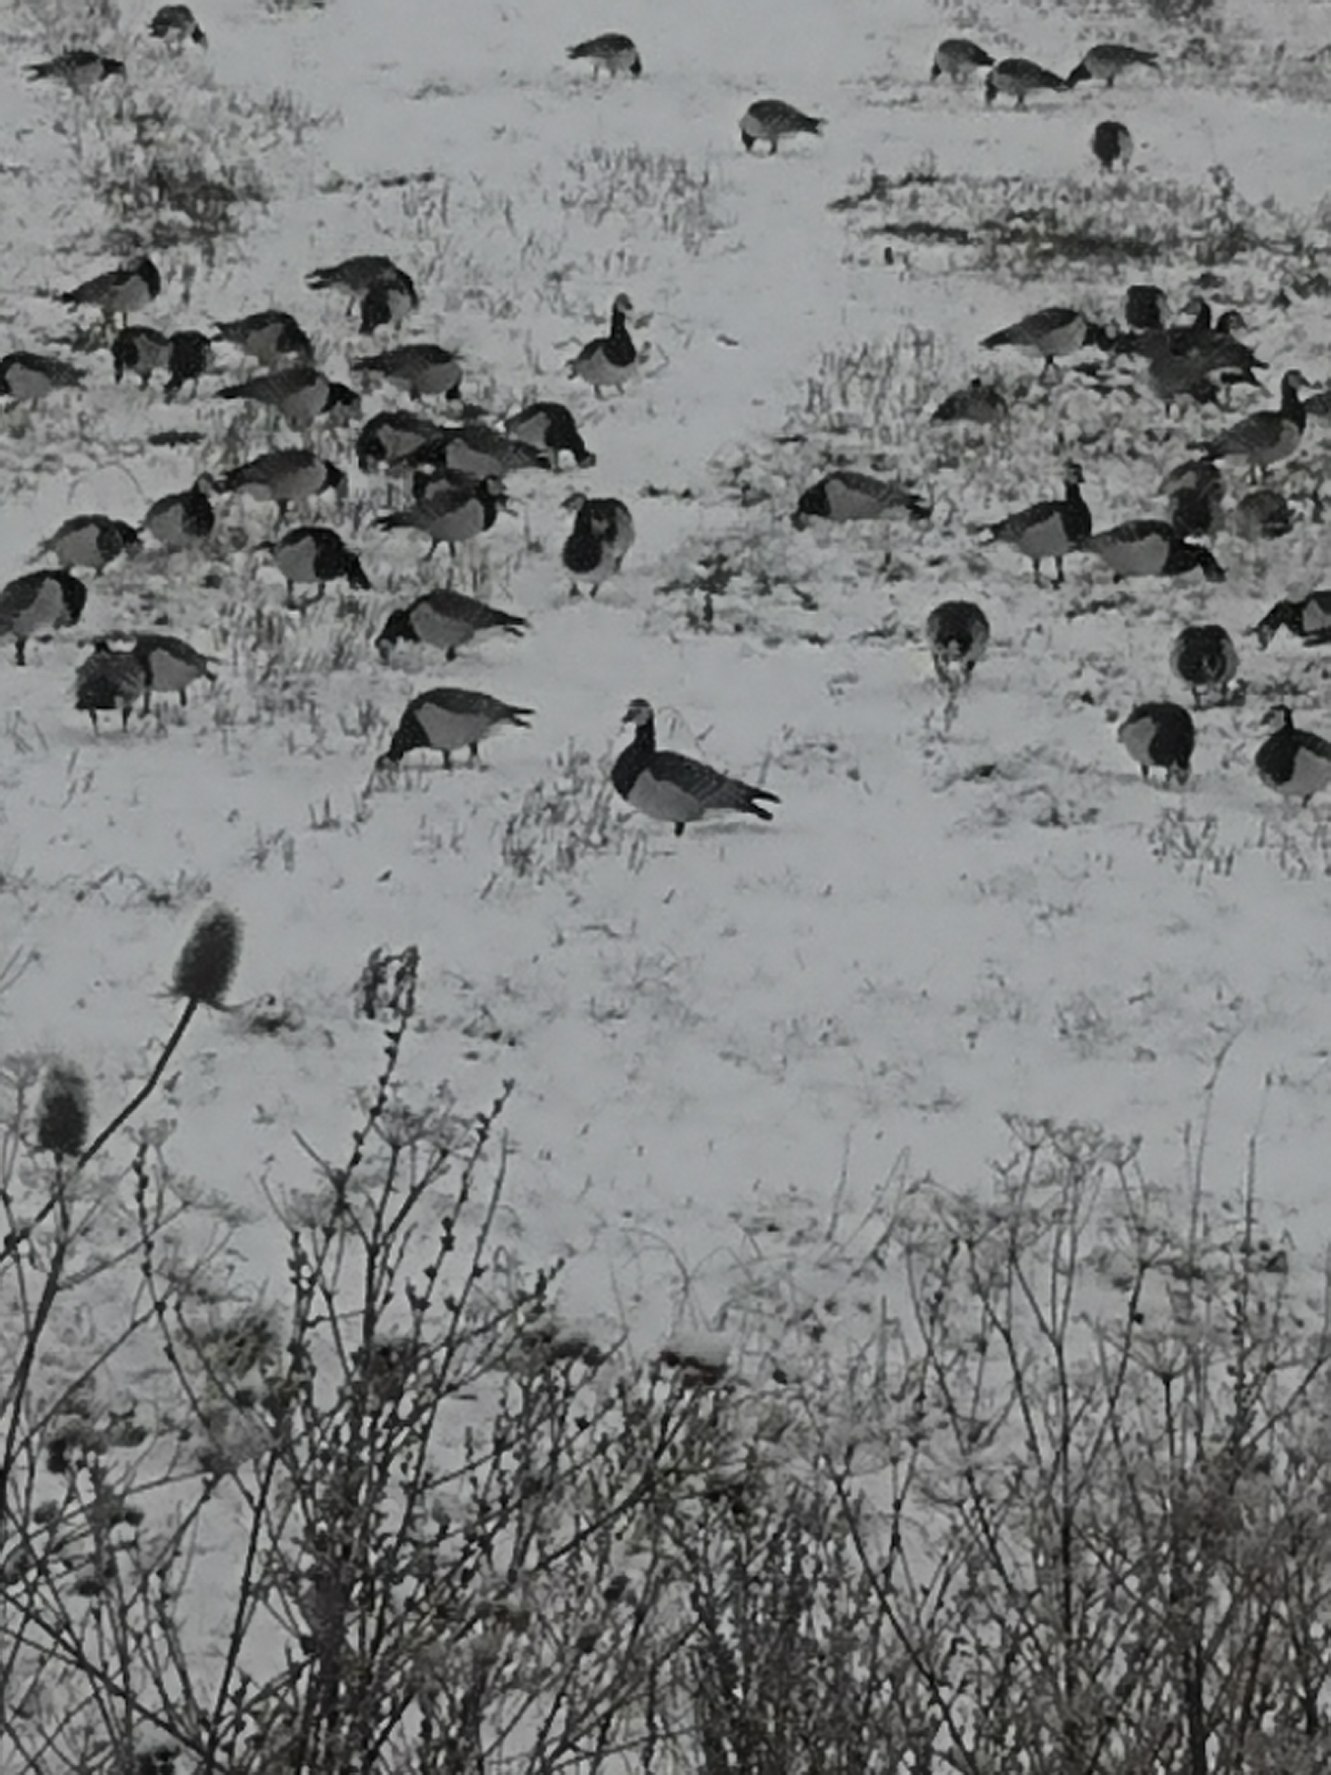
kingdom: Animalia
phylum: Chordata
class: Aves
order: Anseriformes
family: Anatidae
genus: Branta
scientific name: Branta leucopsis
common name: Bramgås
